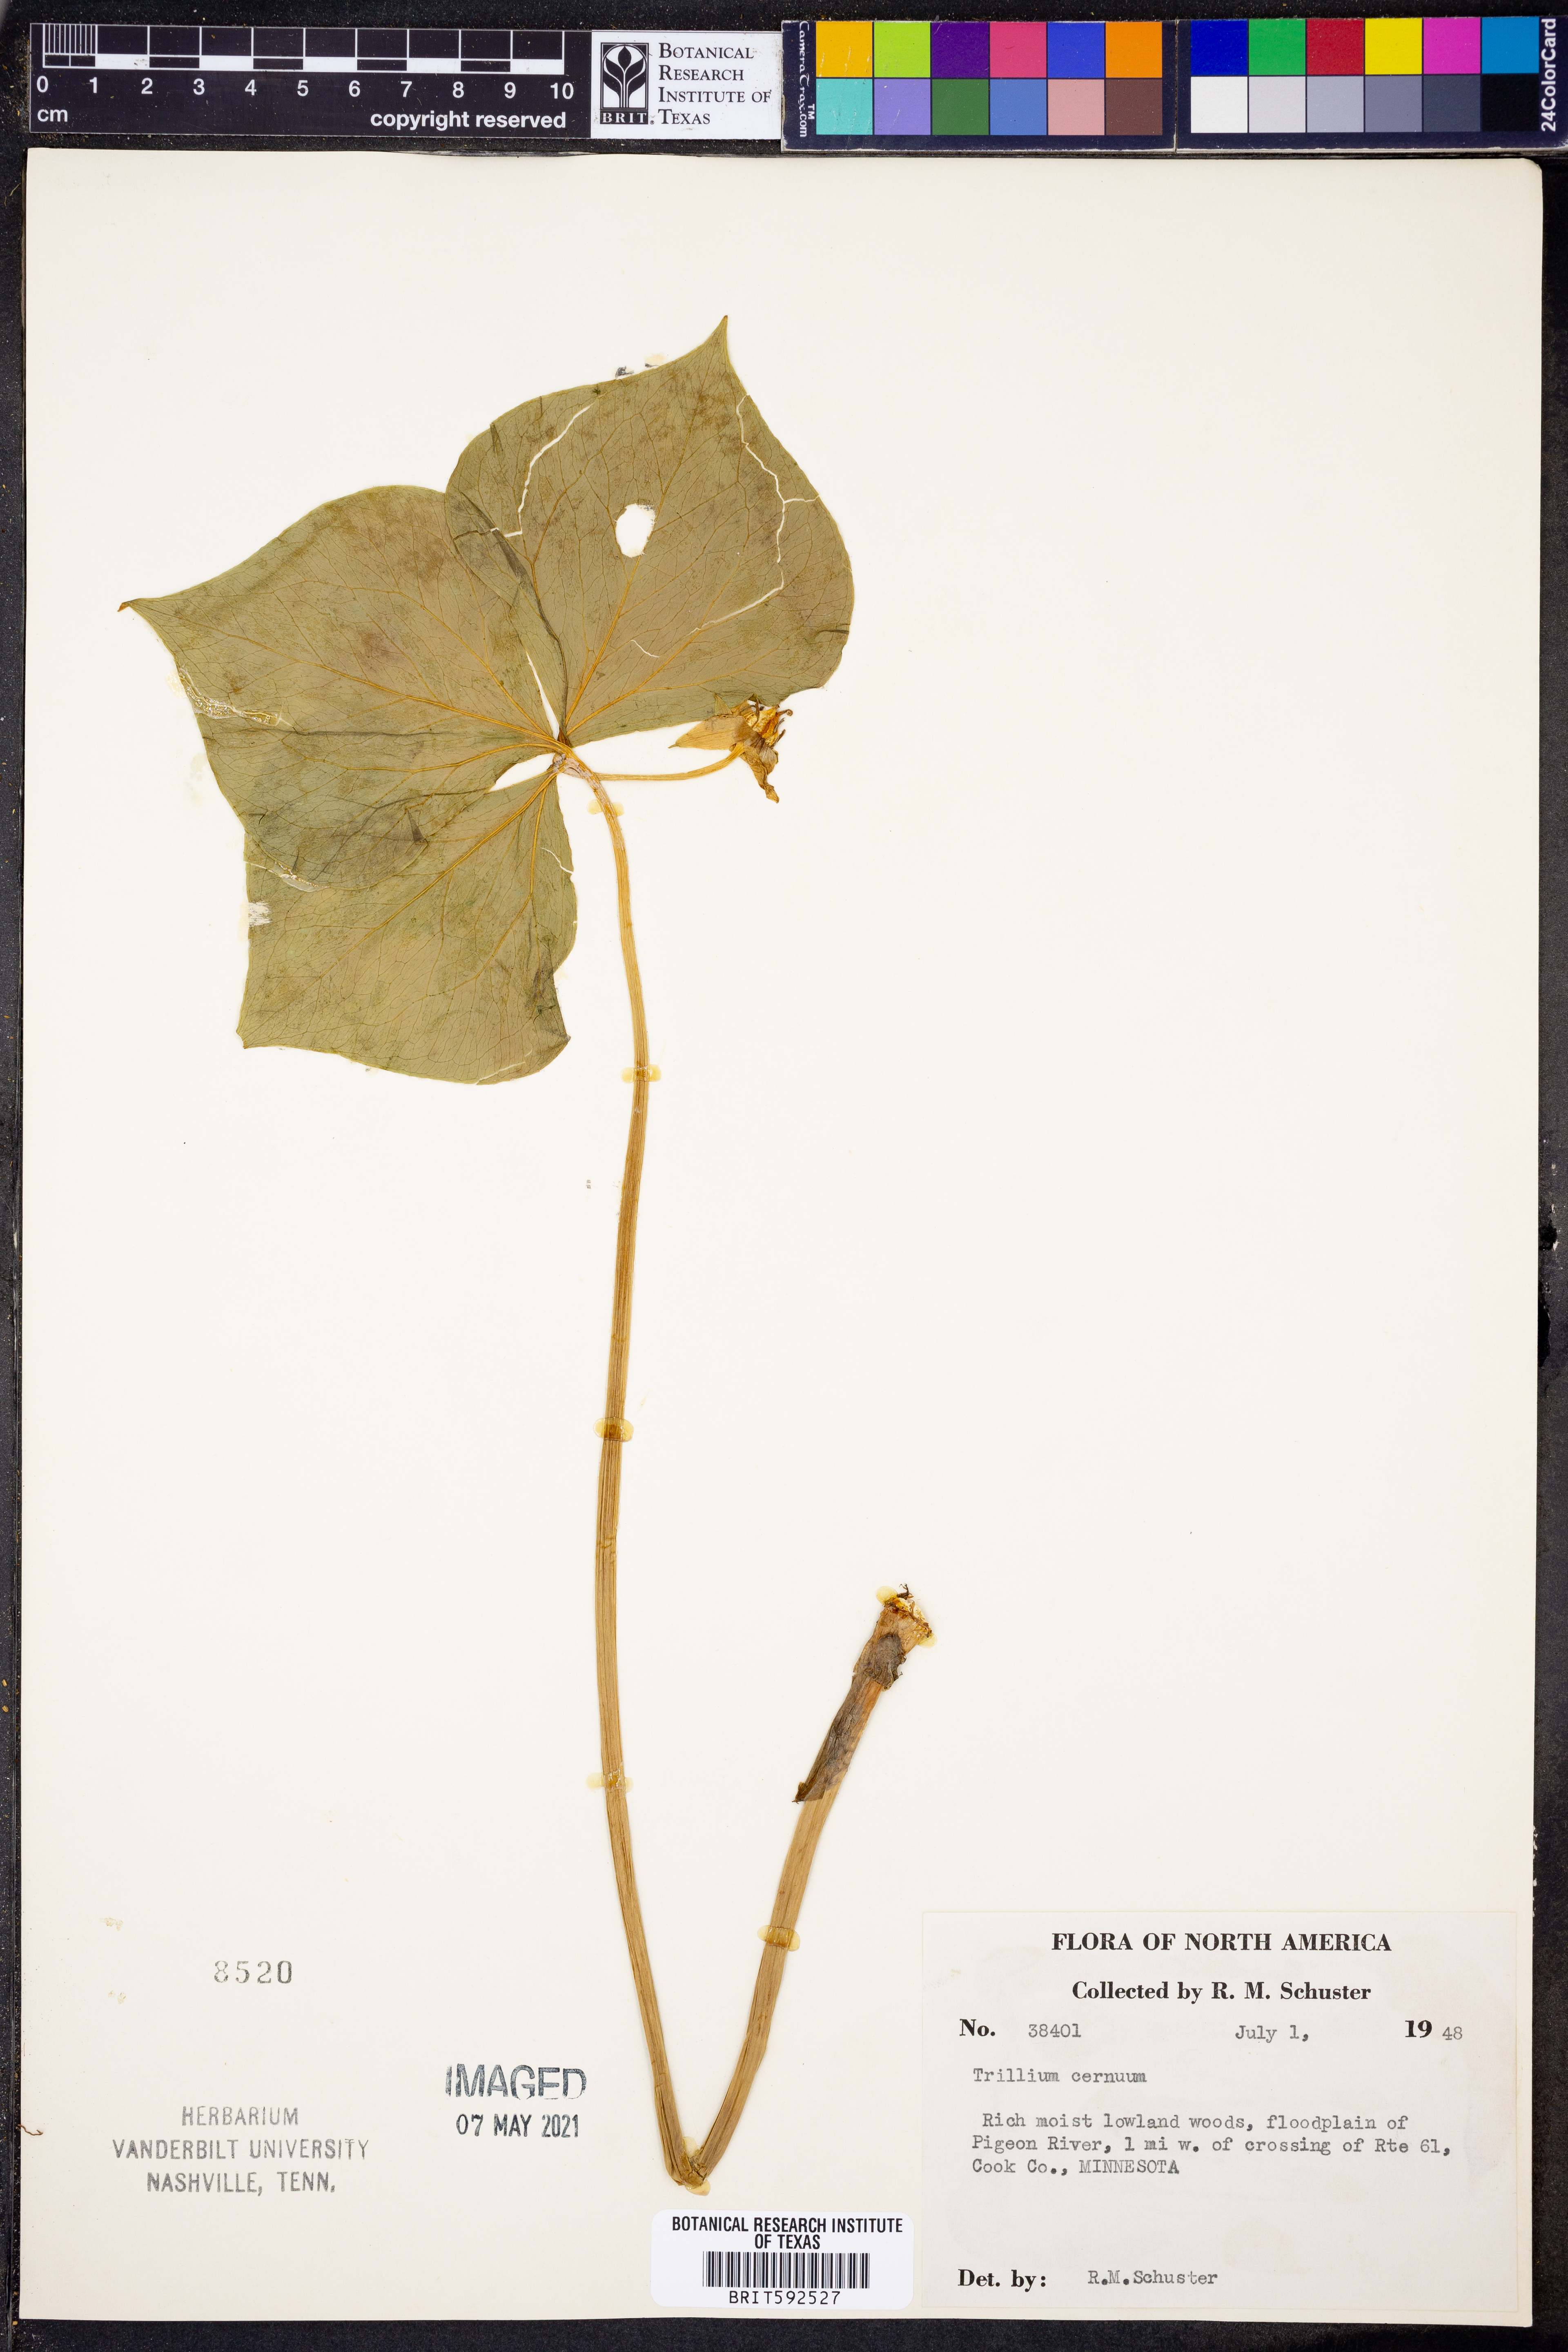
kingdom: Plantae
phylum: Tracheophyta
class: Liliopsida
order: Liliales
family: Melanthiaceae
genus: Trillium
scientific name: Trillium cernuum
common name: Nodding trillium
